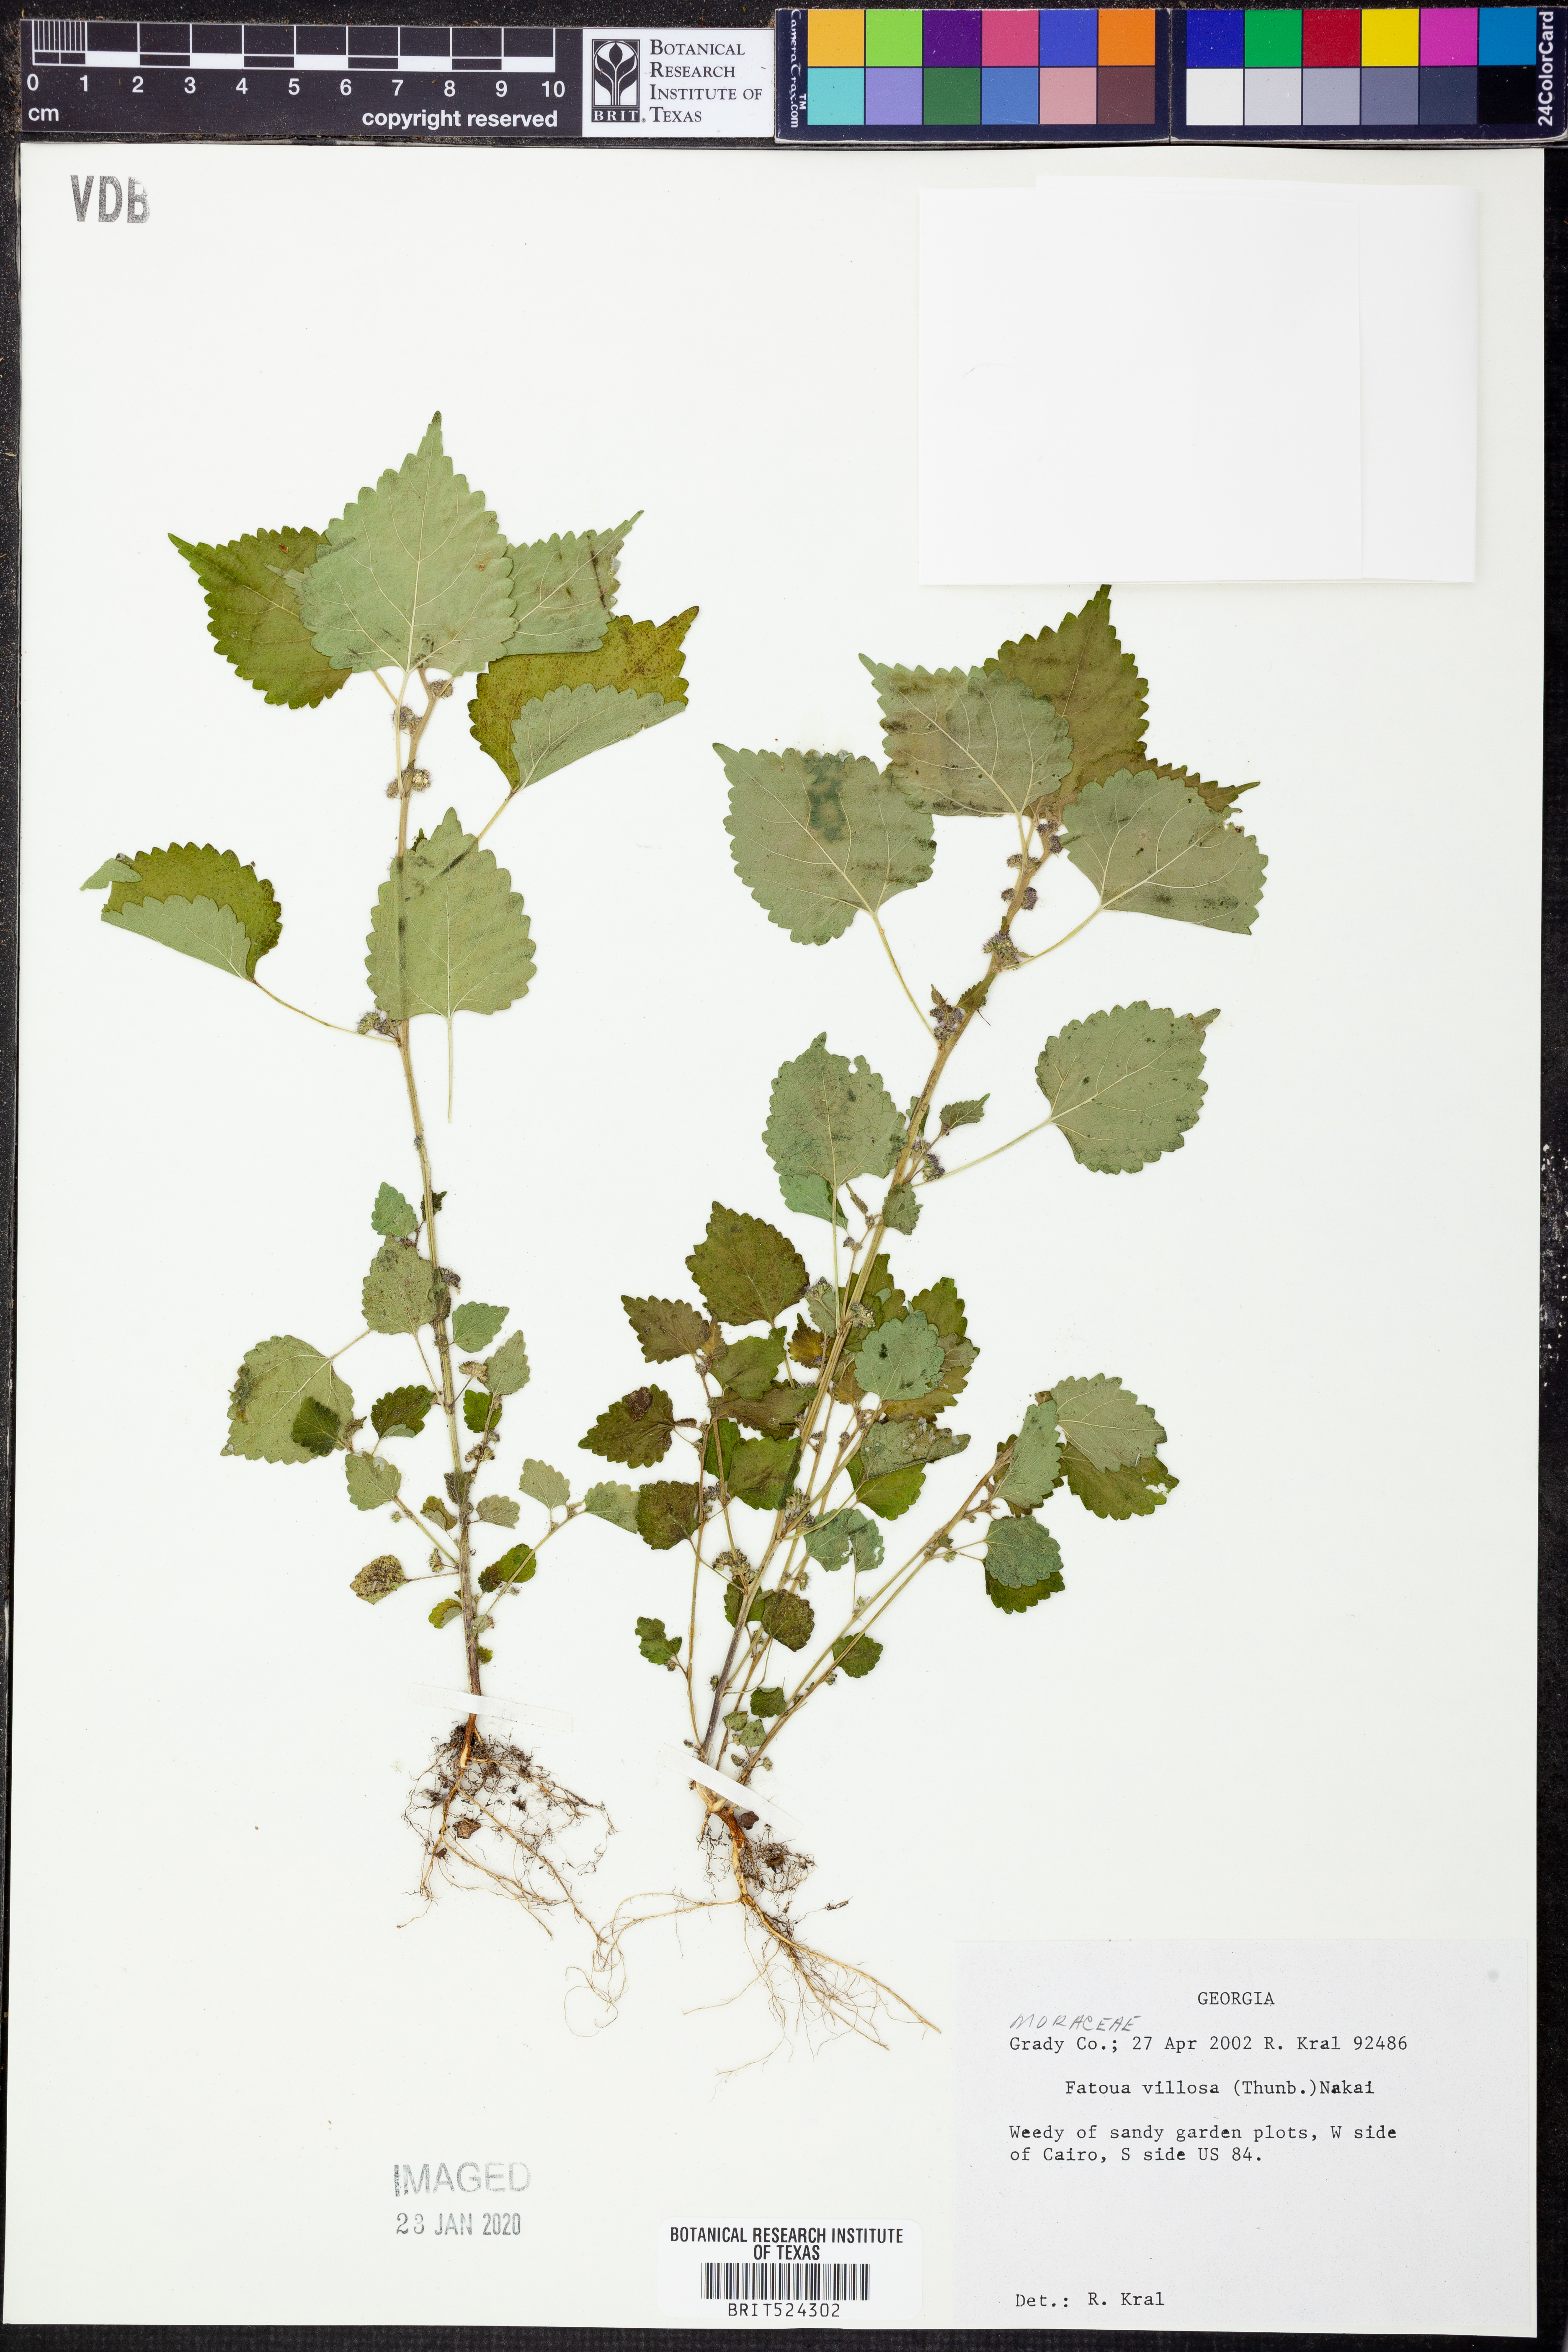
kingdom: Plantae
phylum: Tracheophyta
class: Magnoliopsida
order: Rosales
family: Moraceae
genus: Fatoua
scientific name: Fatoua villosa
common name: Hairy crabweed
